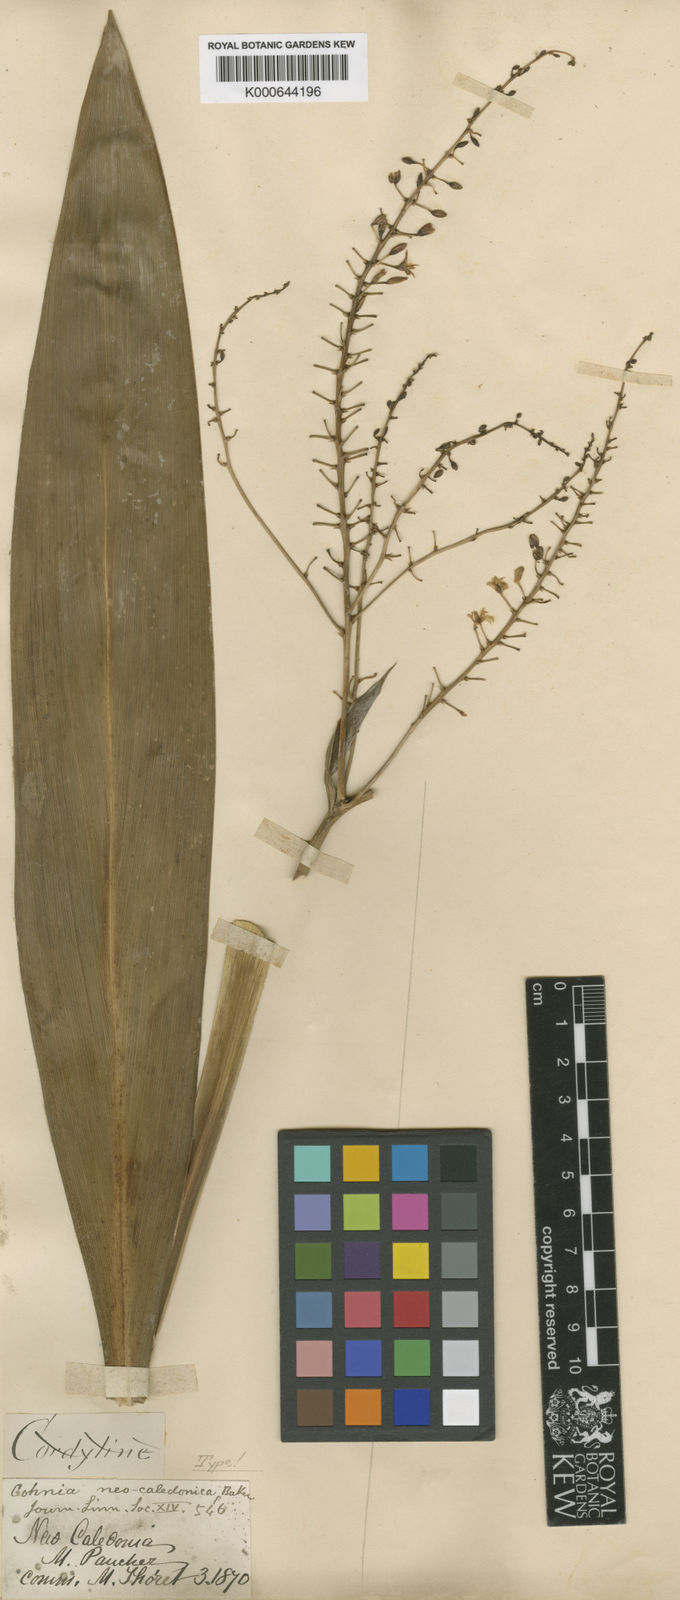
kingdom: Plantae
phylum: Tracheophyta
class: Liliopsida
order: Asparagales
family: Asparagaceae
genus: Cordyline
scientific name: Cordyline neocaledonica
